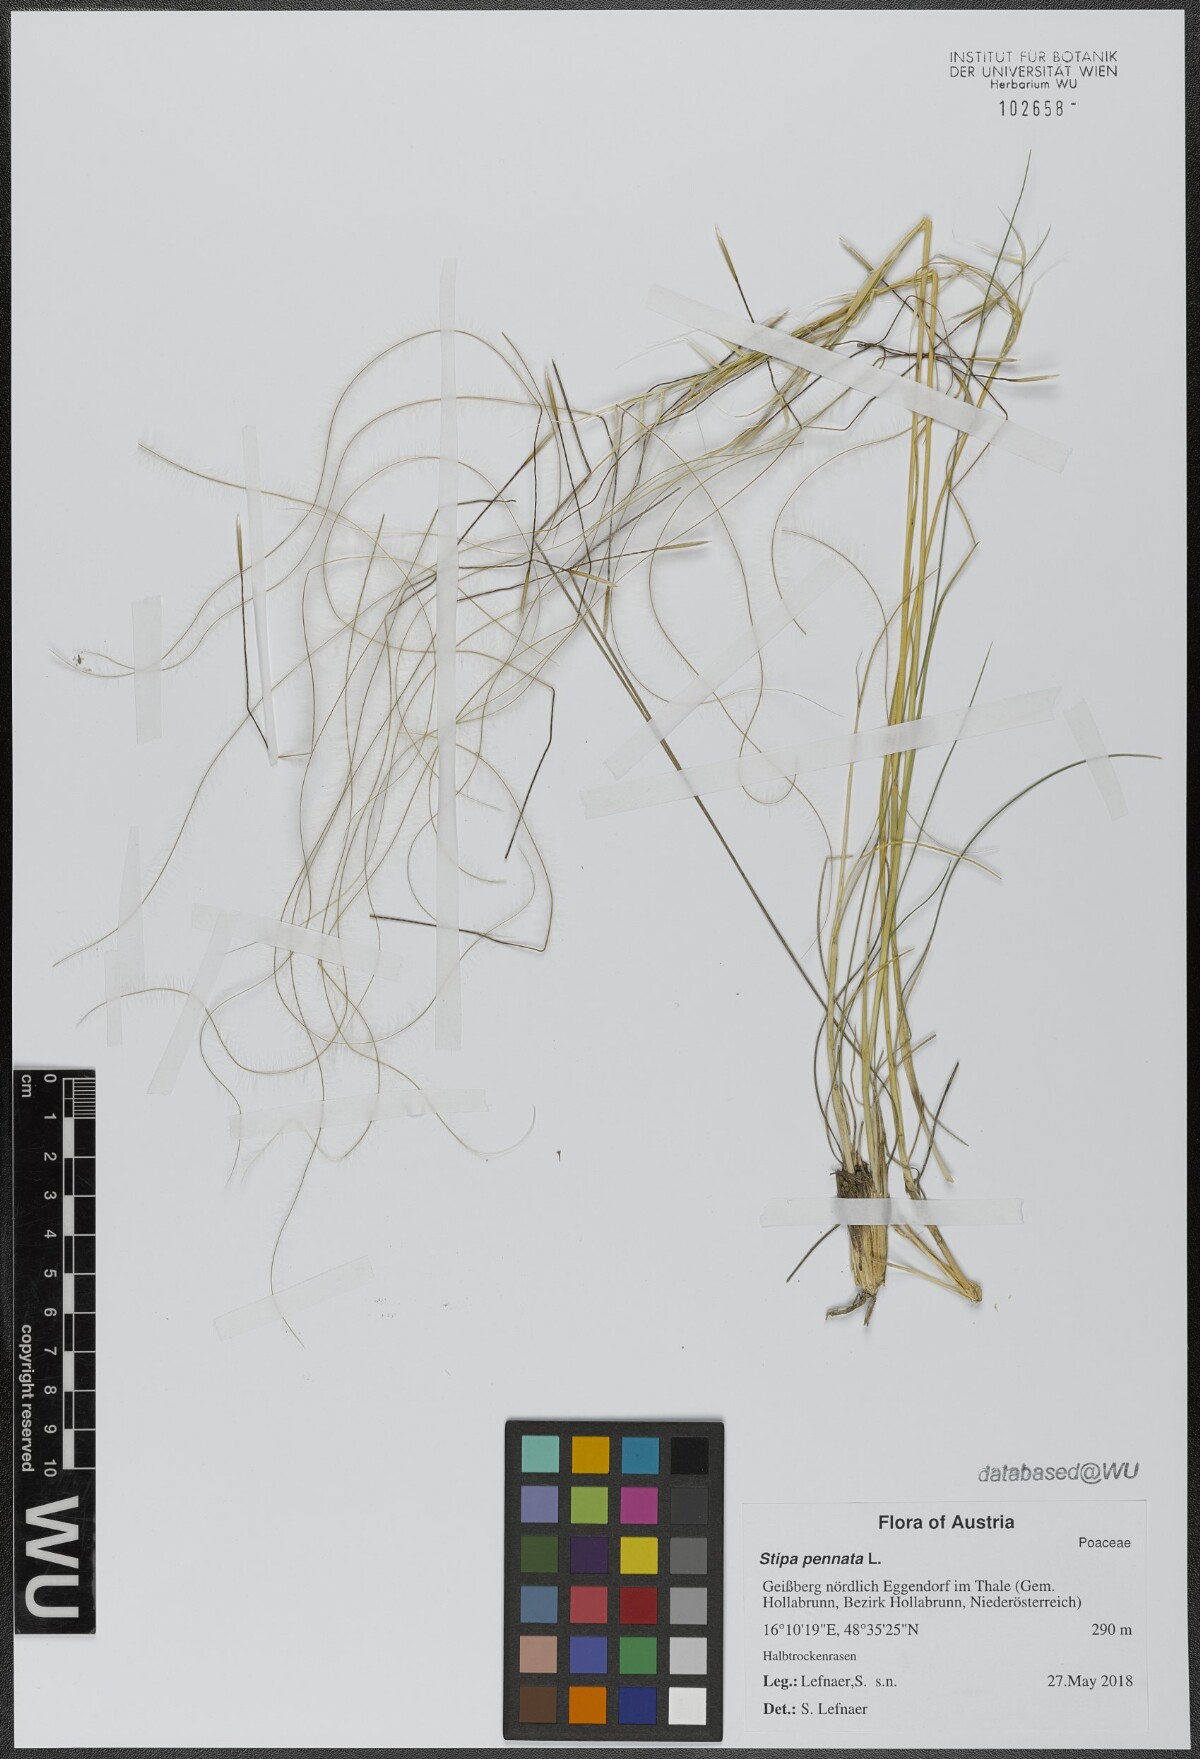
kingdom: Plantae
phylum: Tracheophyta
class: Liliopsida
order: Poales
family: Poaceae
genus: Stipa
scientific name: Stipa pennata
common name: European feather grass
